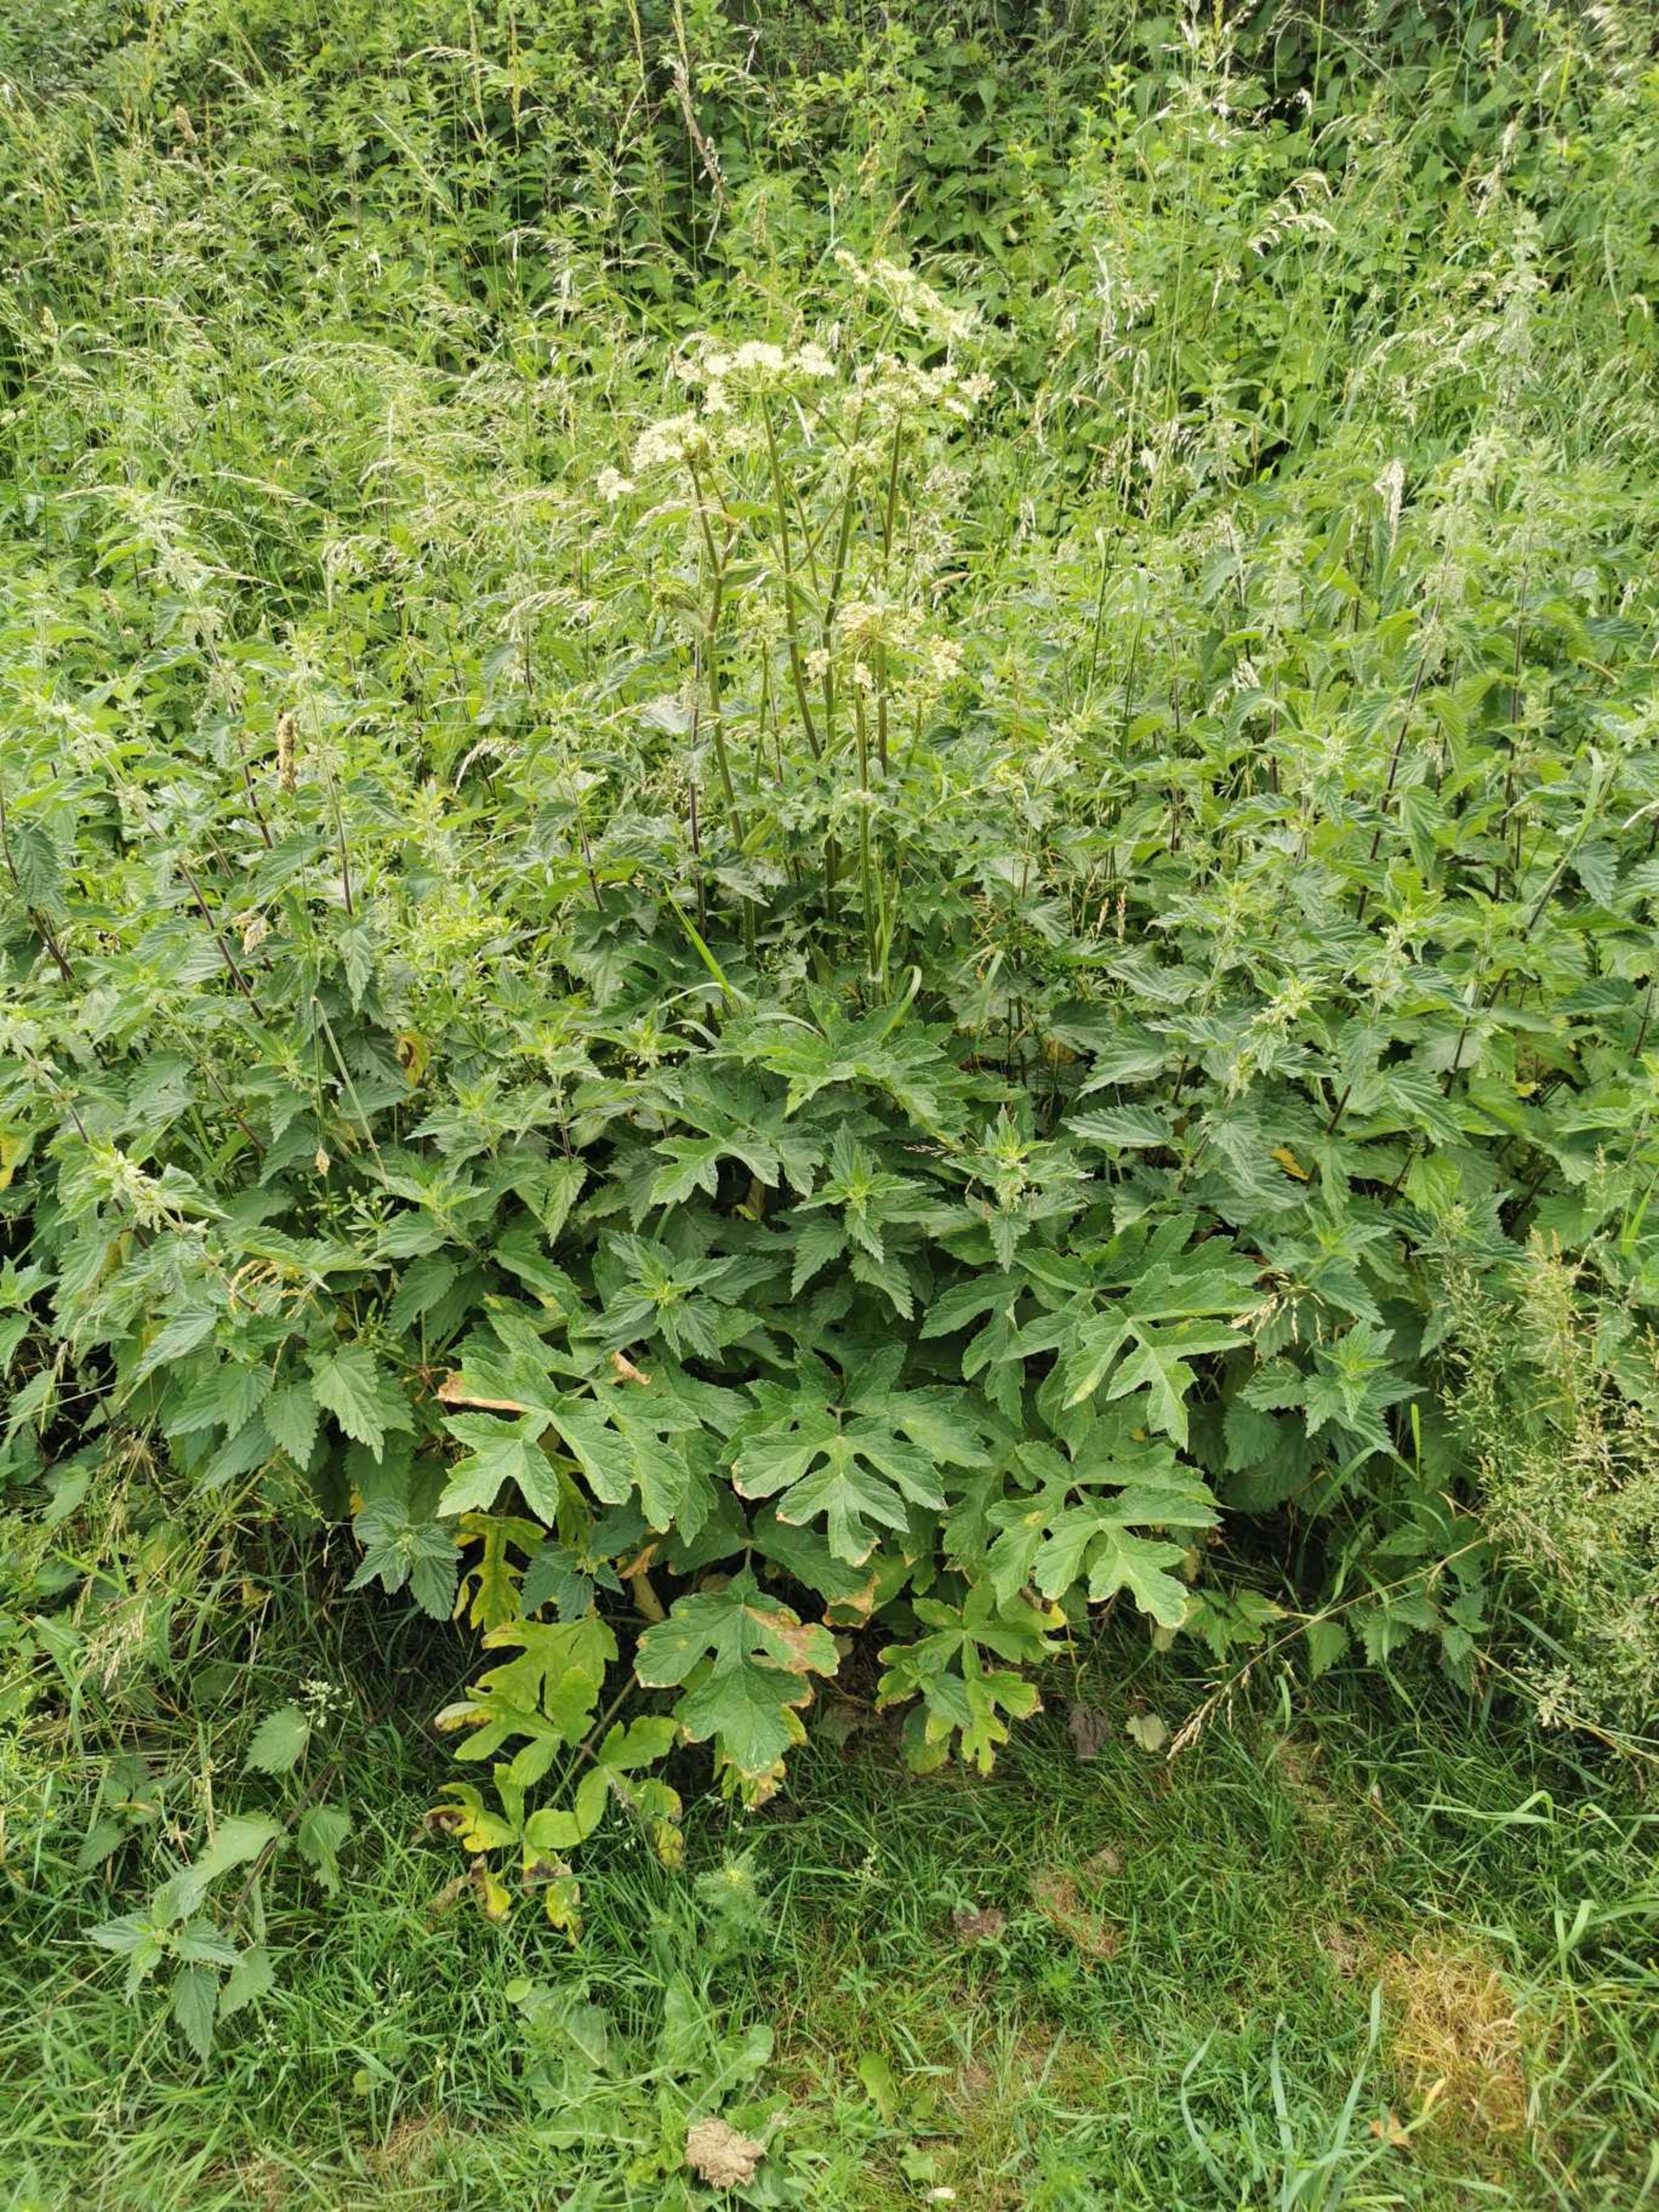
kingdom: Plantae
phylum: Tracheophyta
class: Magnoliopsida
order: Apiales
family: Apiaceae
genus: Heracleum
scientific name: Heracleum sphondylium
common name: Almindelig bjørneklo
